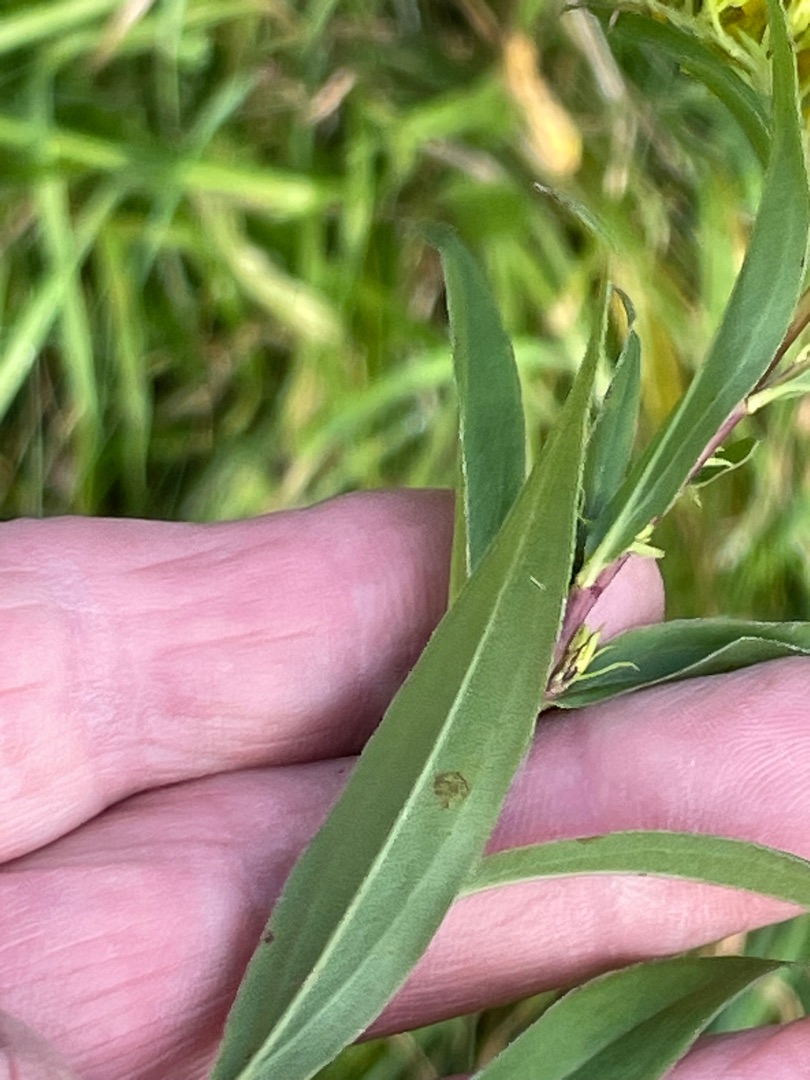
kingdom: Plantae
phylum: Tracheophyta
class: Magnoliopsida
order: Asterales
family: Asteraceae
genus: Solidago
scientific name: Solidago gigantea
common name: Sildig gyldenris
